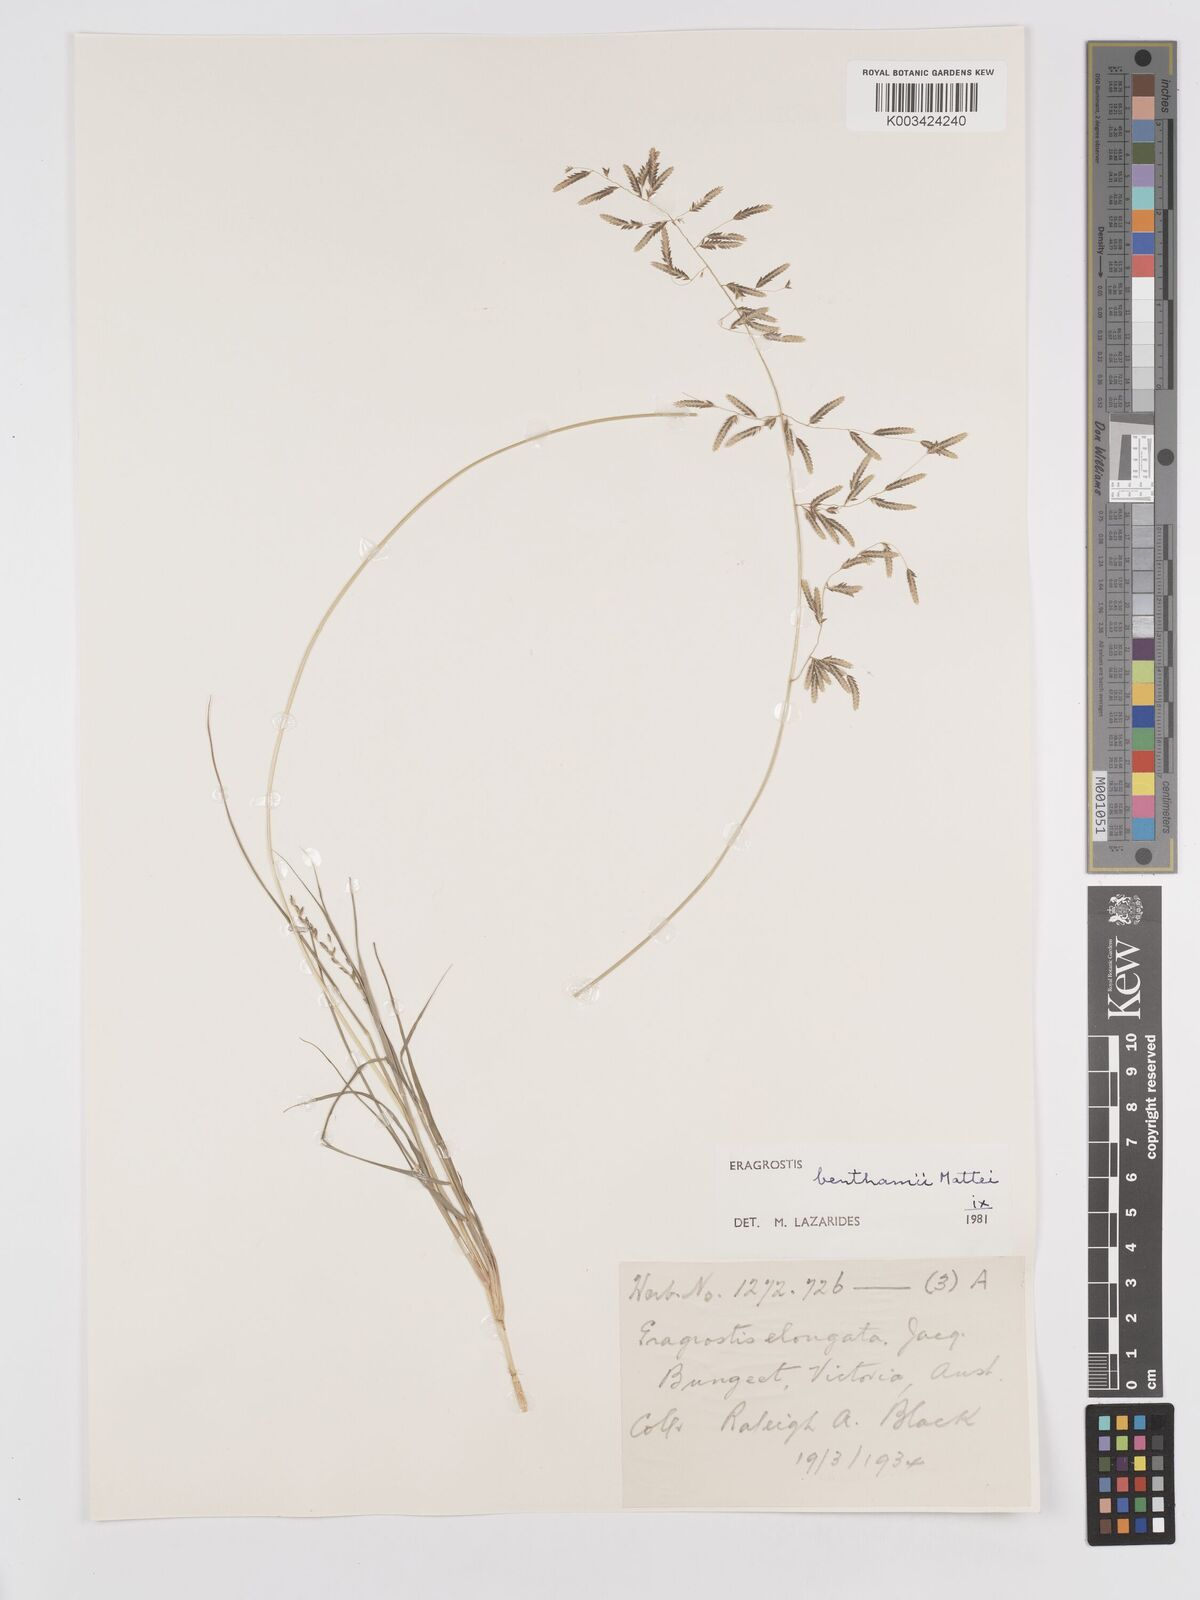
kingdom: Plantae
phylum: Tracheophyta
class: Liliopsida
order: Poales
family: Poaceae
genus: Eragrostis
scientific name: Eragrostis brownii
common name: Lovegrass
